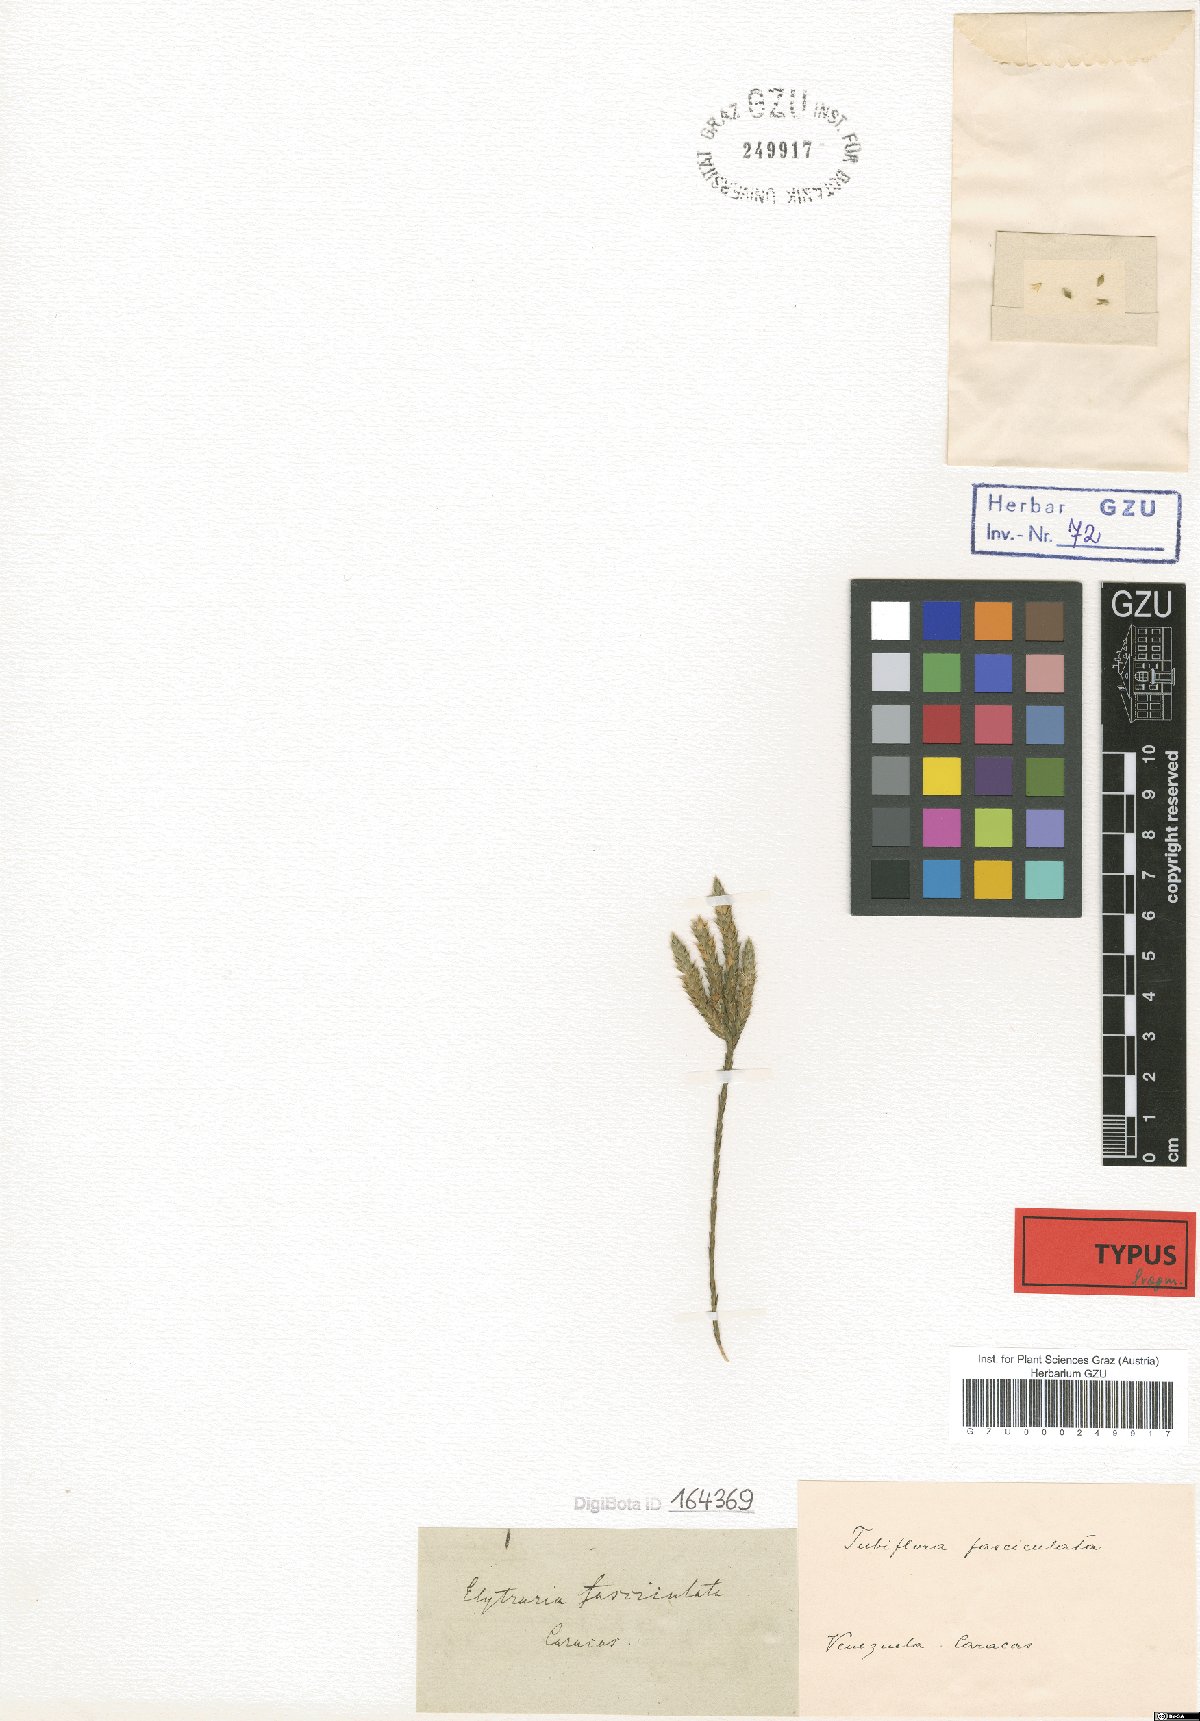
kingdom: Plantae
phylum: Tracheophyta
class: Magnoliopsida
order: Lamiales
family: Acanthaceae
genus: Elytraria
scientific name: Elytraria imbricata
